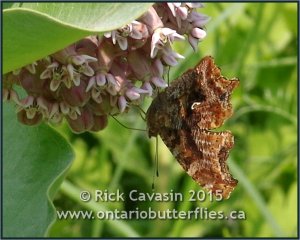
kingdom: Animalia
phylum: Arthropoda
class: Insecta
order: Lepidoptera
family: Nymphalidae
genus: Polygonia
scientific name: Polygonia comma
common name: Eastern Comma
